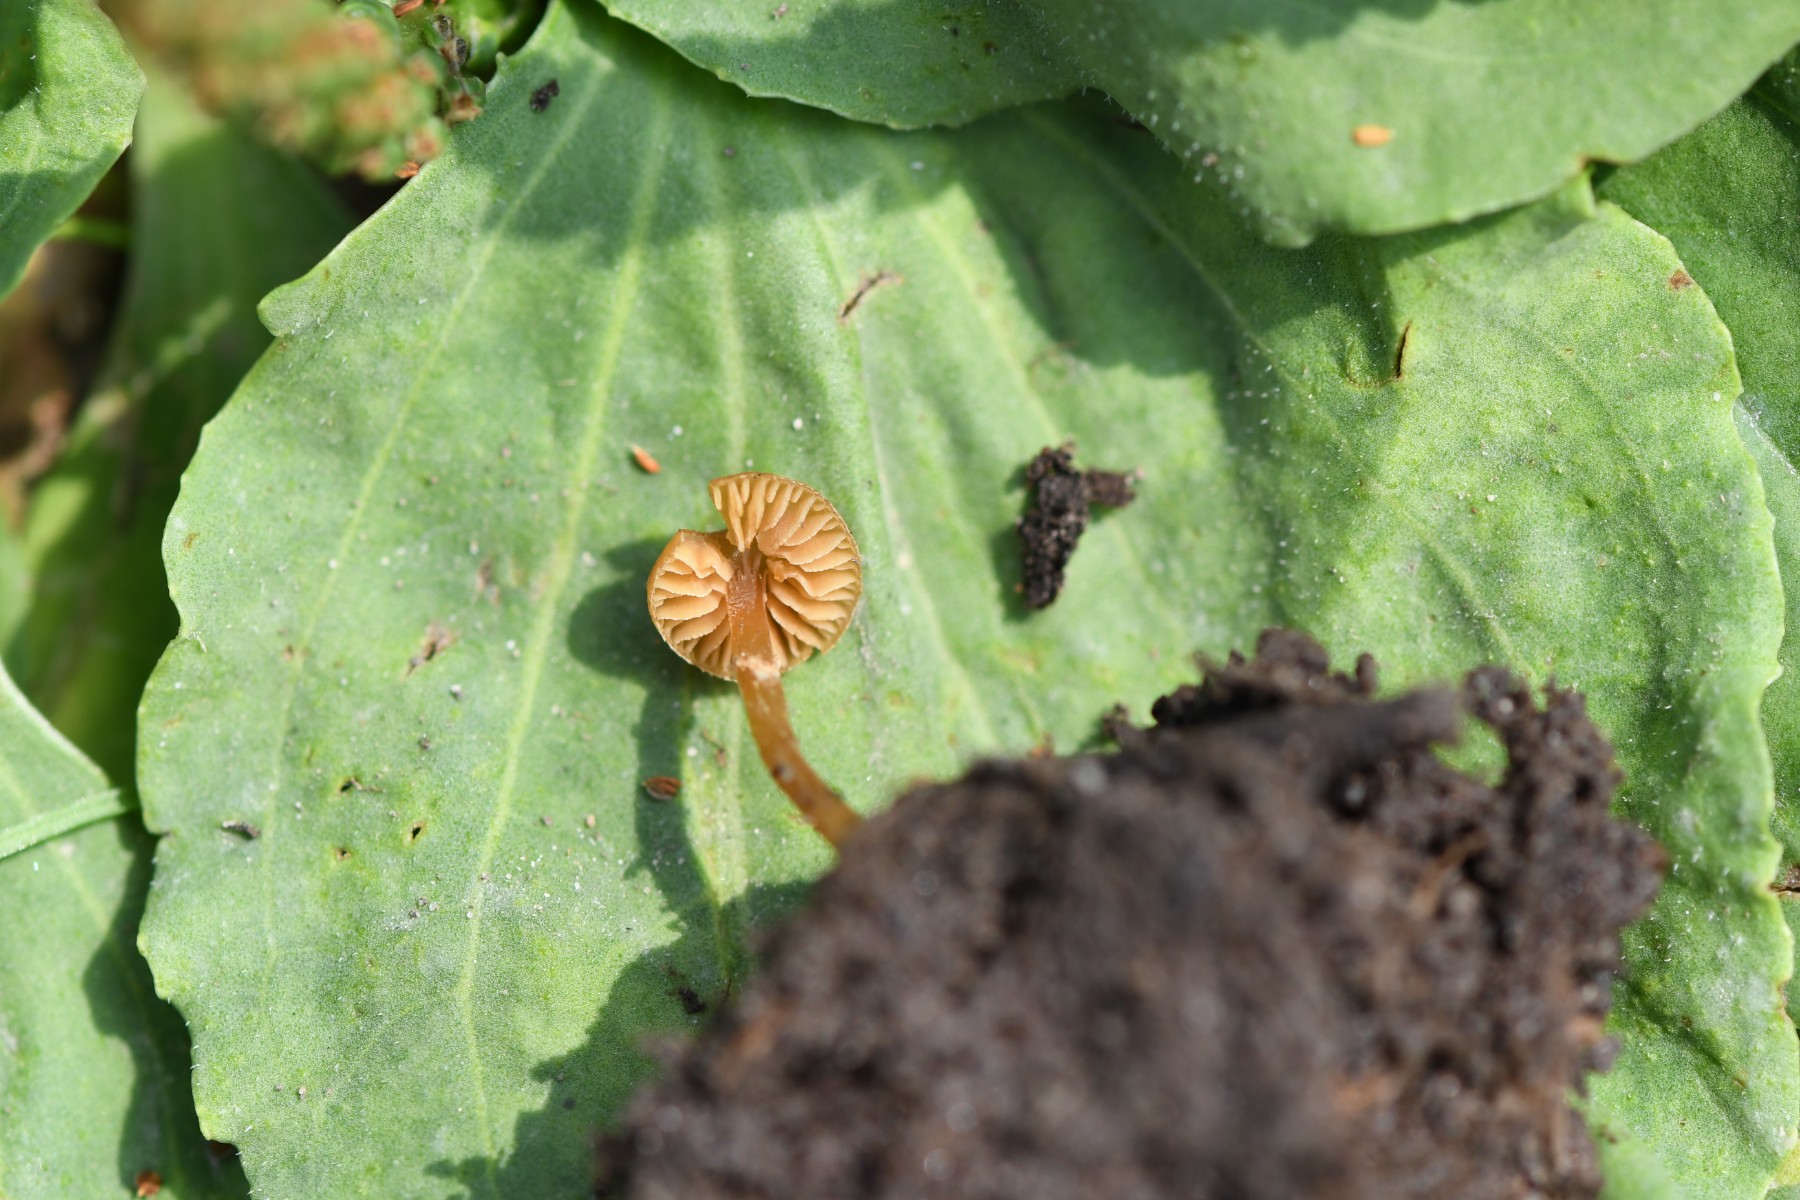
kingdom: Fungi
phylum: Basidiomycota
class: Agaricomycetes
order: Agaricales
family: Hymenogastraceae
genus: Galerina
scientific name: Galerina jaapii
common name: hvidbæltet hjelmhat
